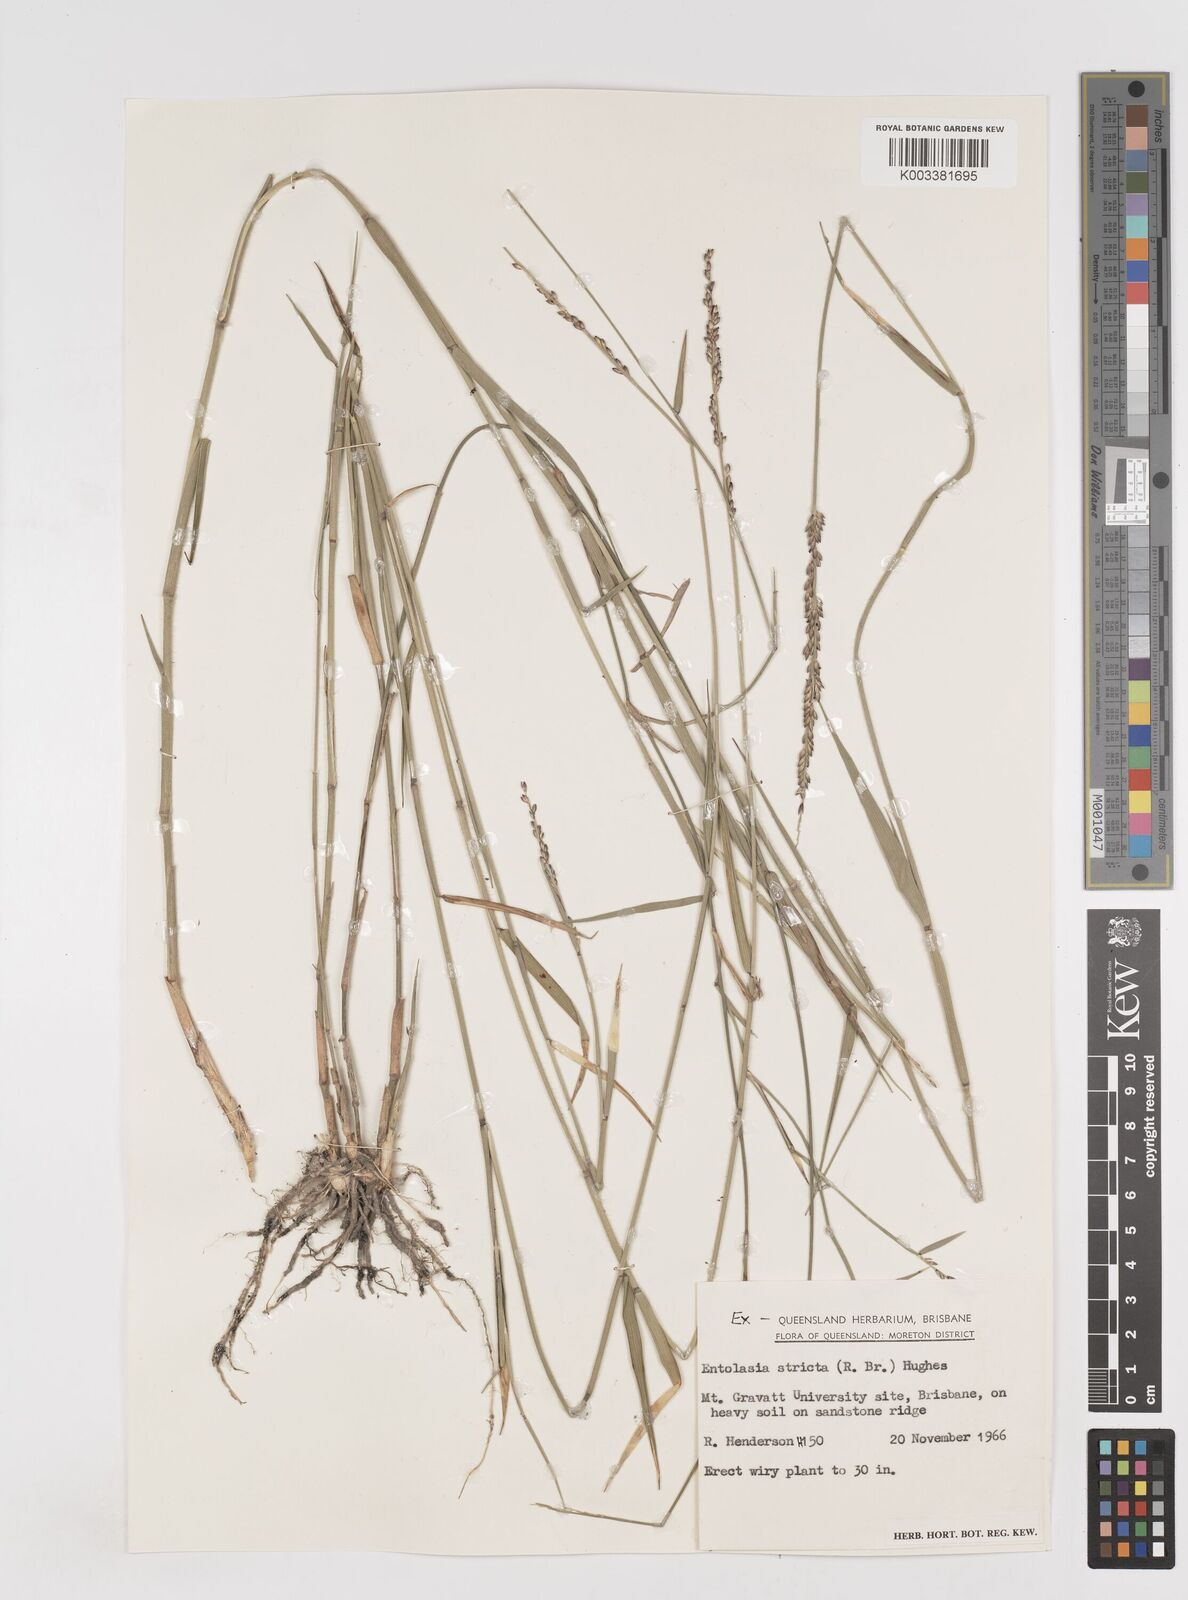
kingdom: Plantae
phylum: Tracheophyta
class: Liliopsida
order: Poales
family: Poaceae
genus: Entolasia
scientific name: Entolasia stricta
